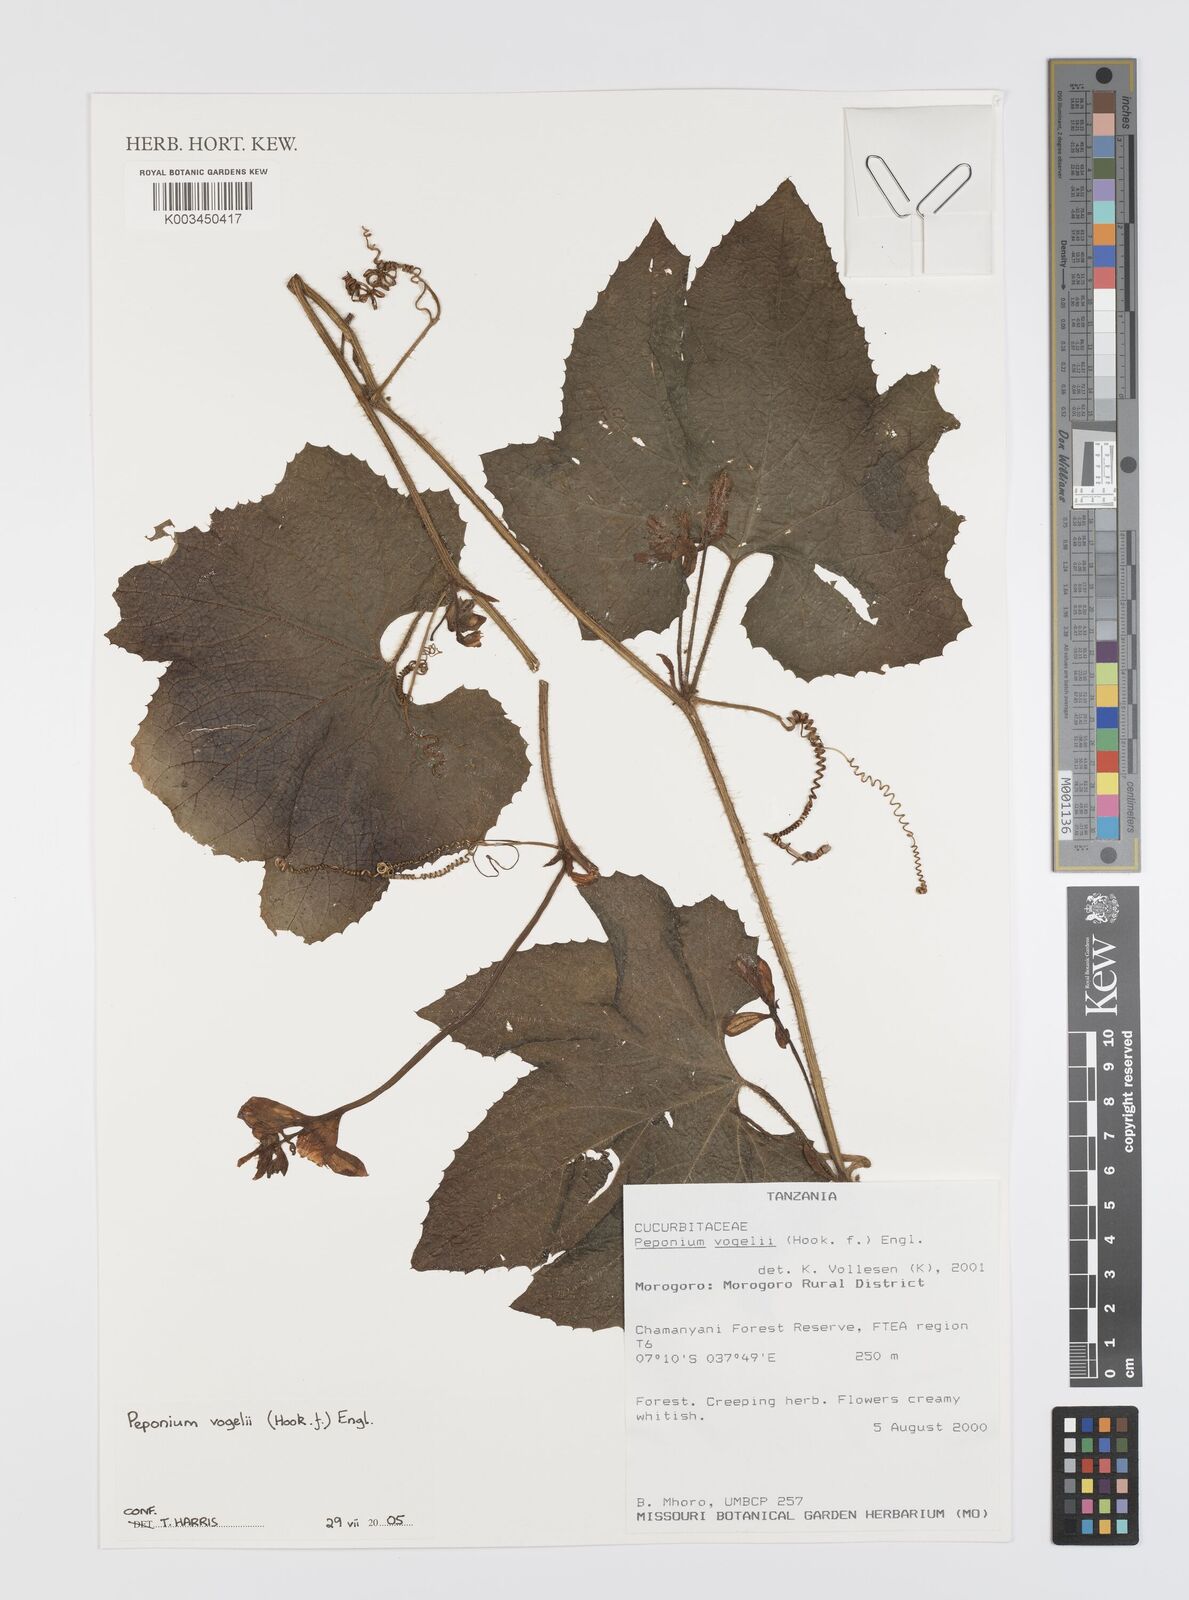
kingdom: Plantae
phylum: Tracheophyta
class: Magnoliopsida
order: Cucurbitales
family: Cucurbitaceae
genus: Peponium
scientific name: Peponium vogelii
